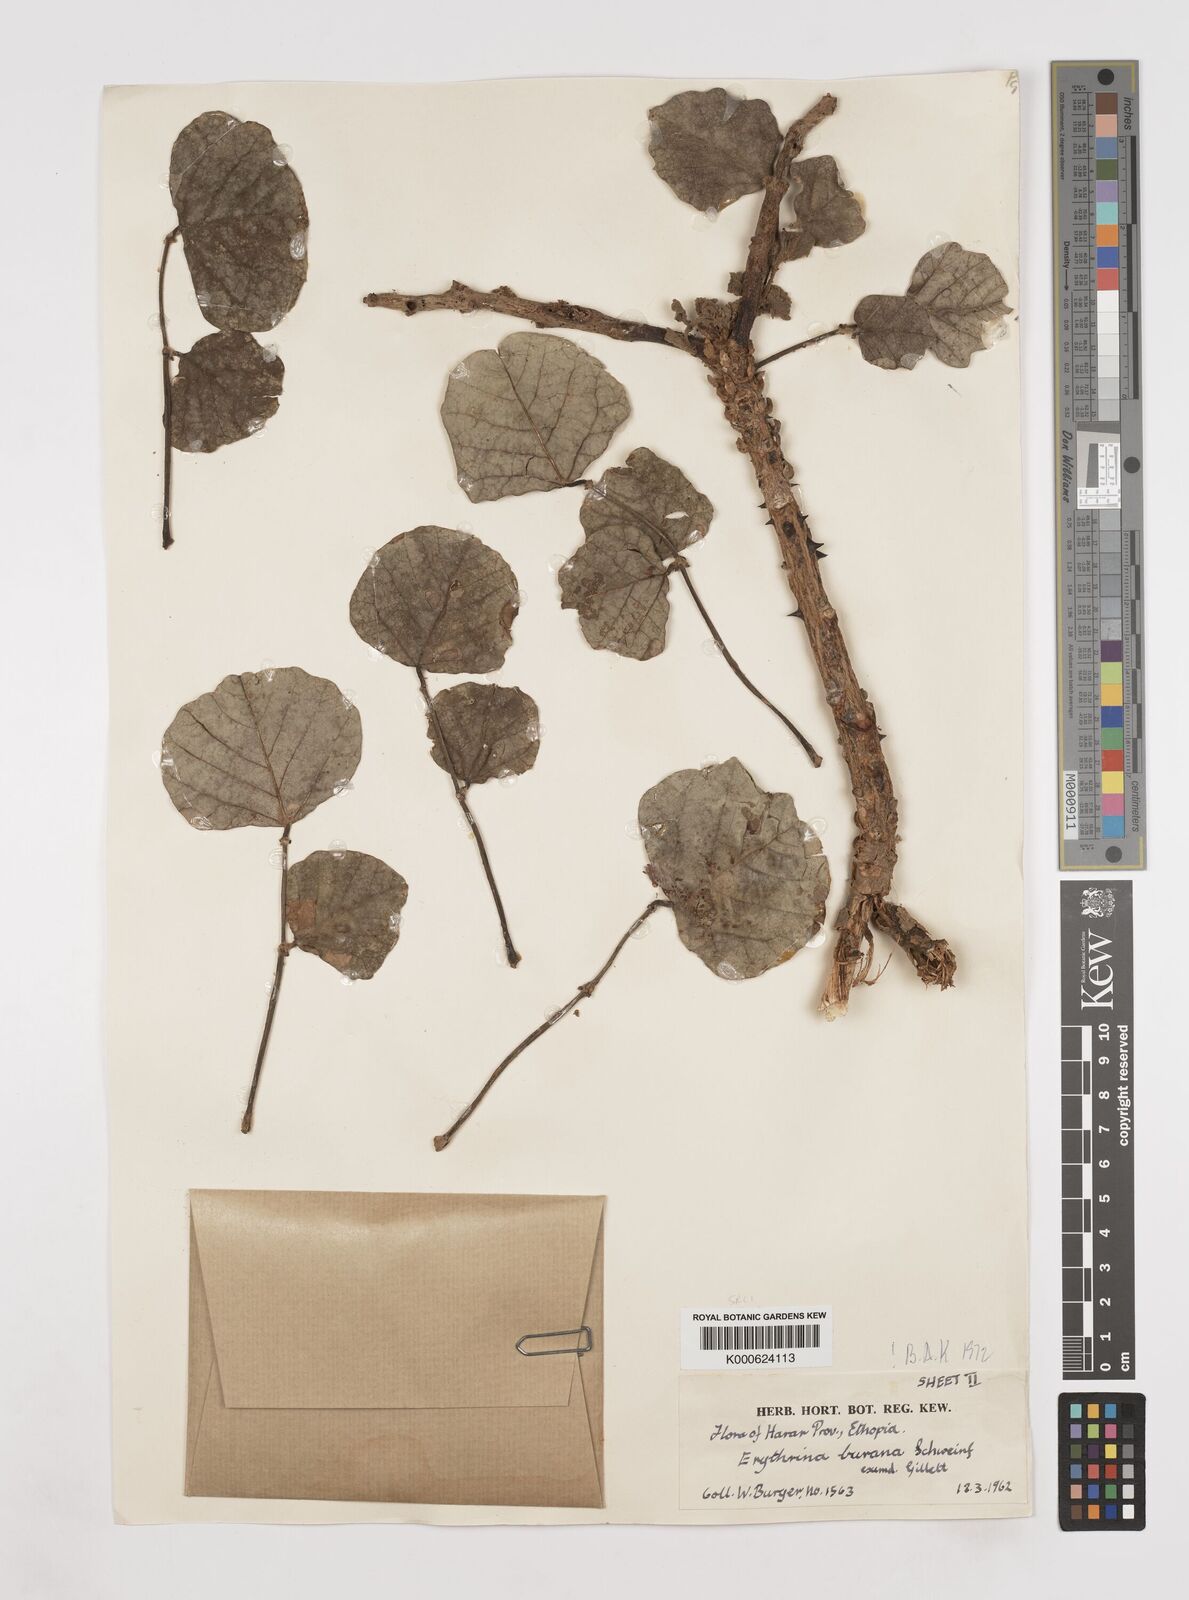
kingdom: Plantae
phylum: Tracheophyta
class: Magnoliopsida
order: Fabales
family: Fabaceae
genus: Erythrina
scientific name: Erythrina burana
